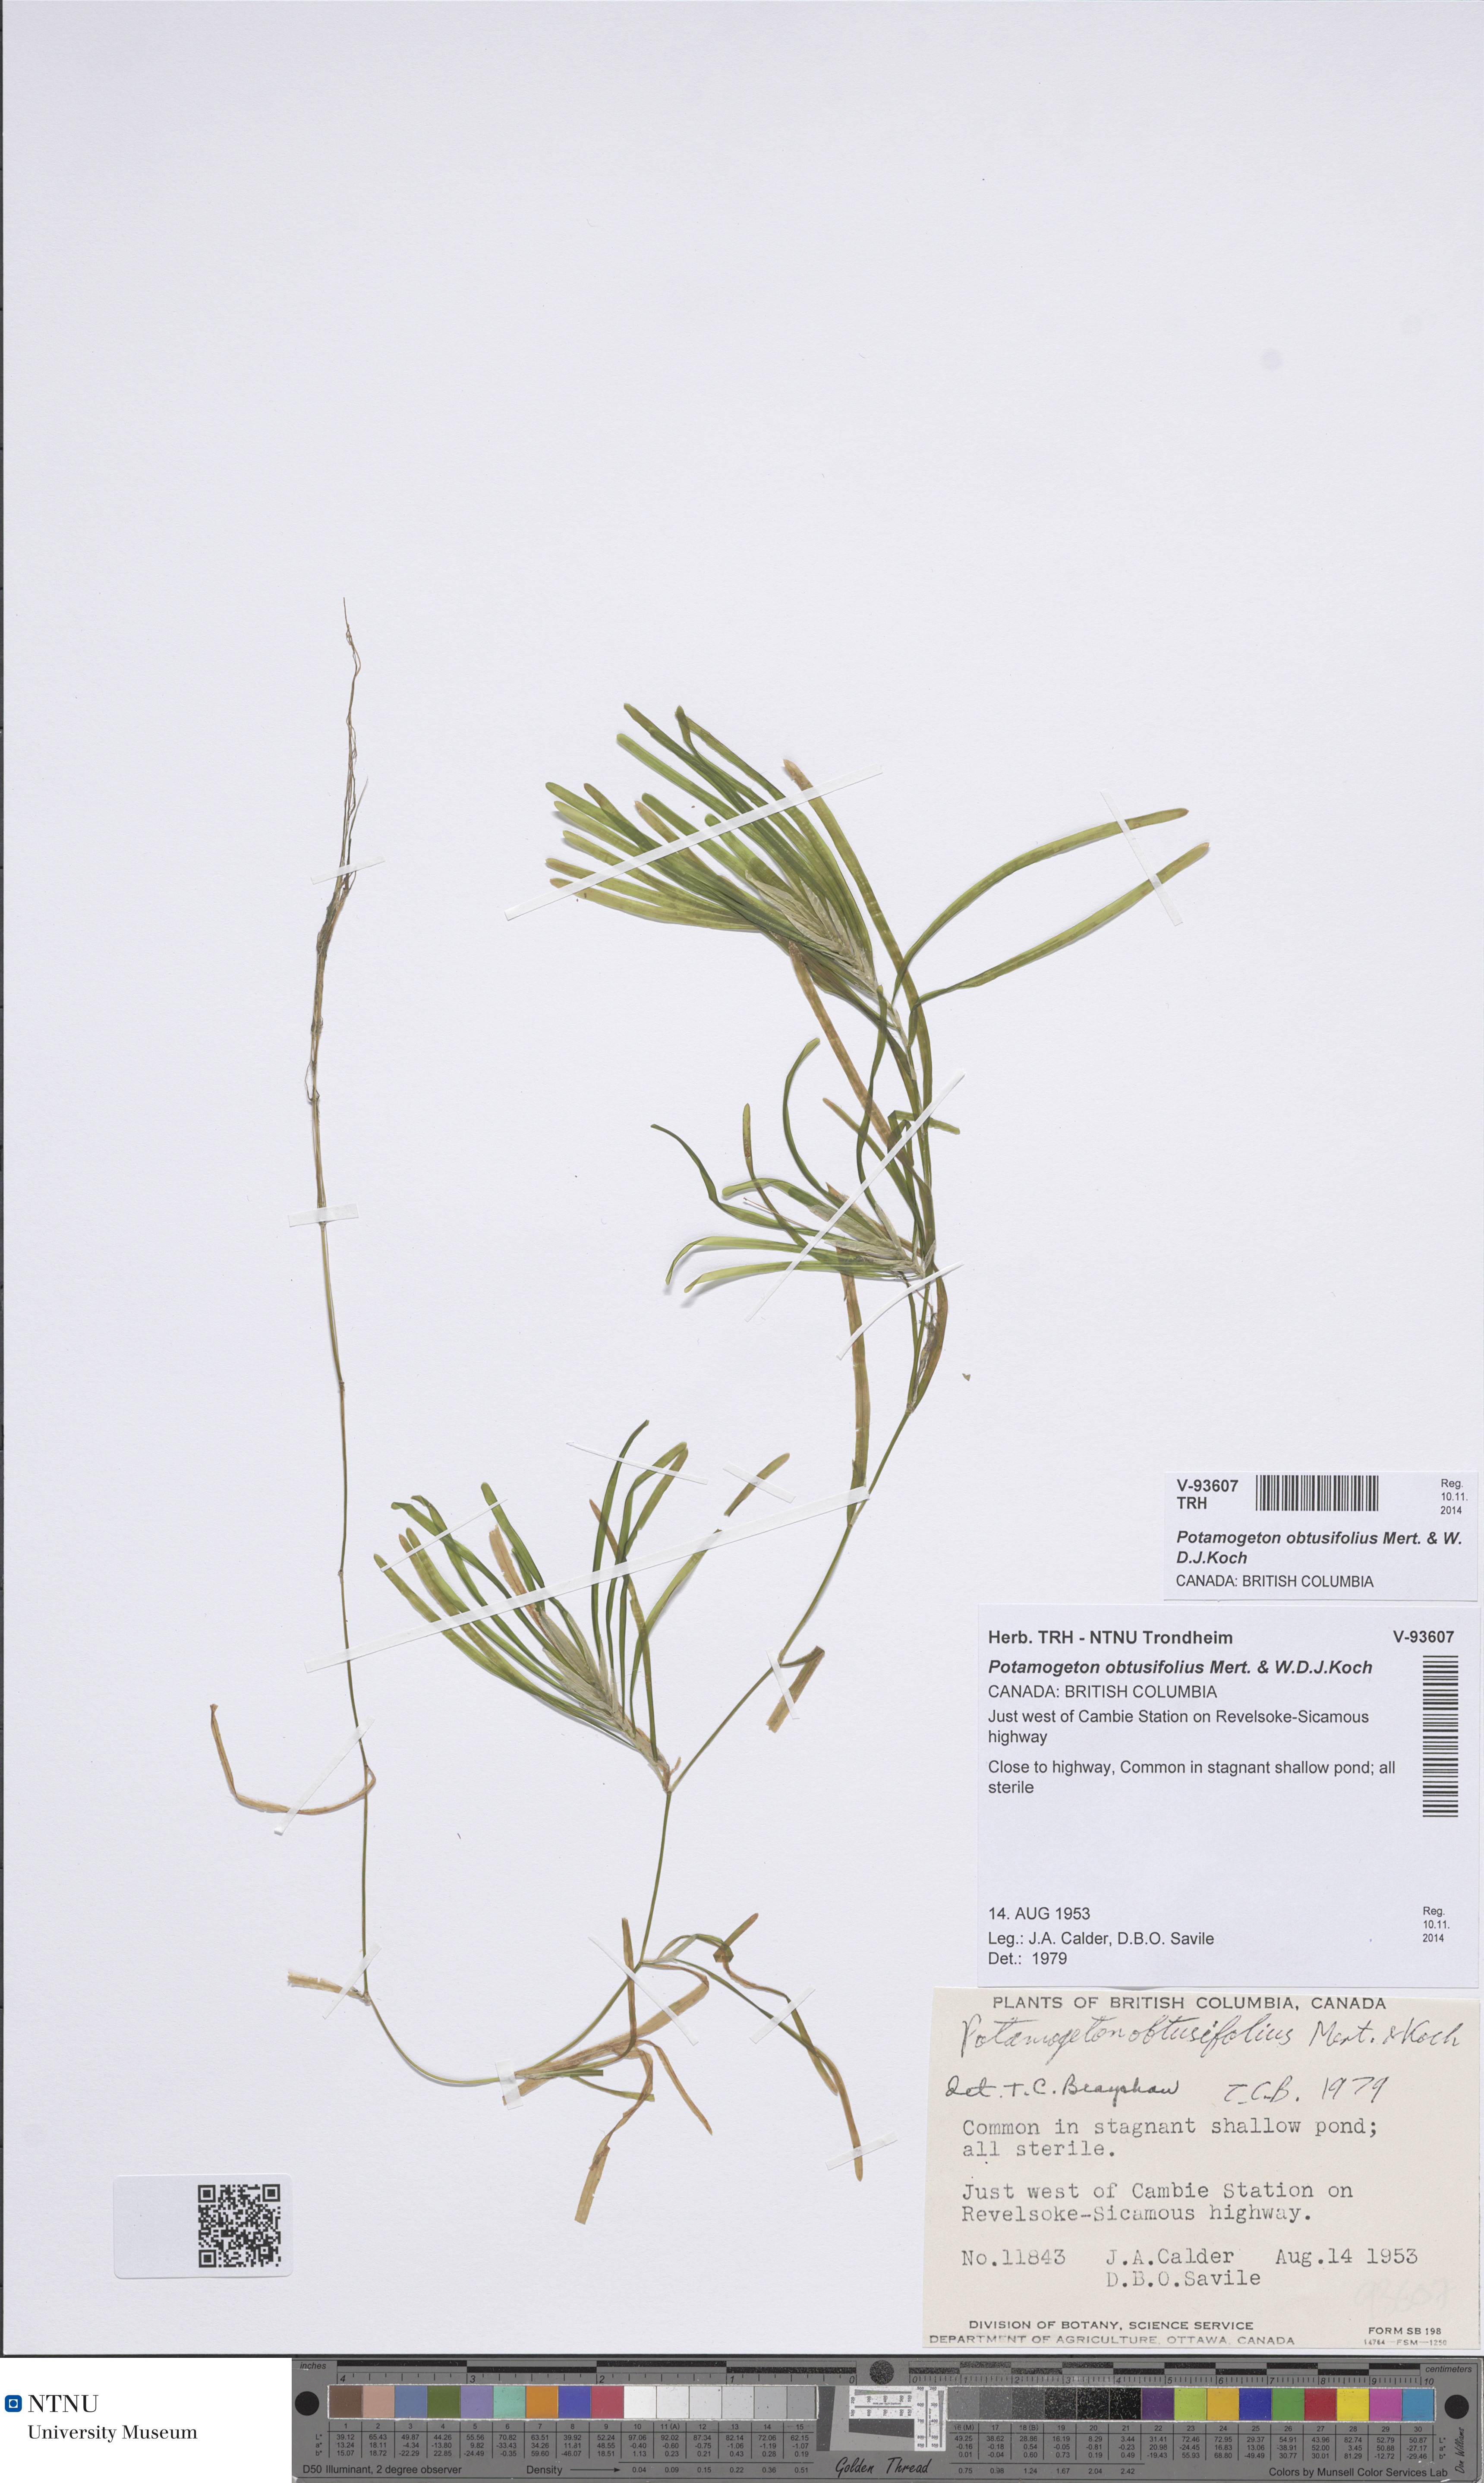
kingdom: Plantae
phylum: Tracheophyta
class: Liliopsida
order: Alismatales
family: Potamogetonaceae
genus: Potamogeton
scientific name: Potamogeton obtusifolius
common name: Blunt-leaved pondweed
